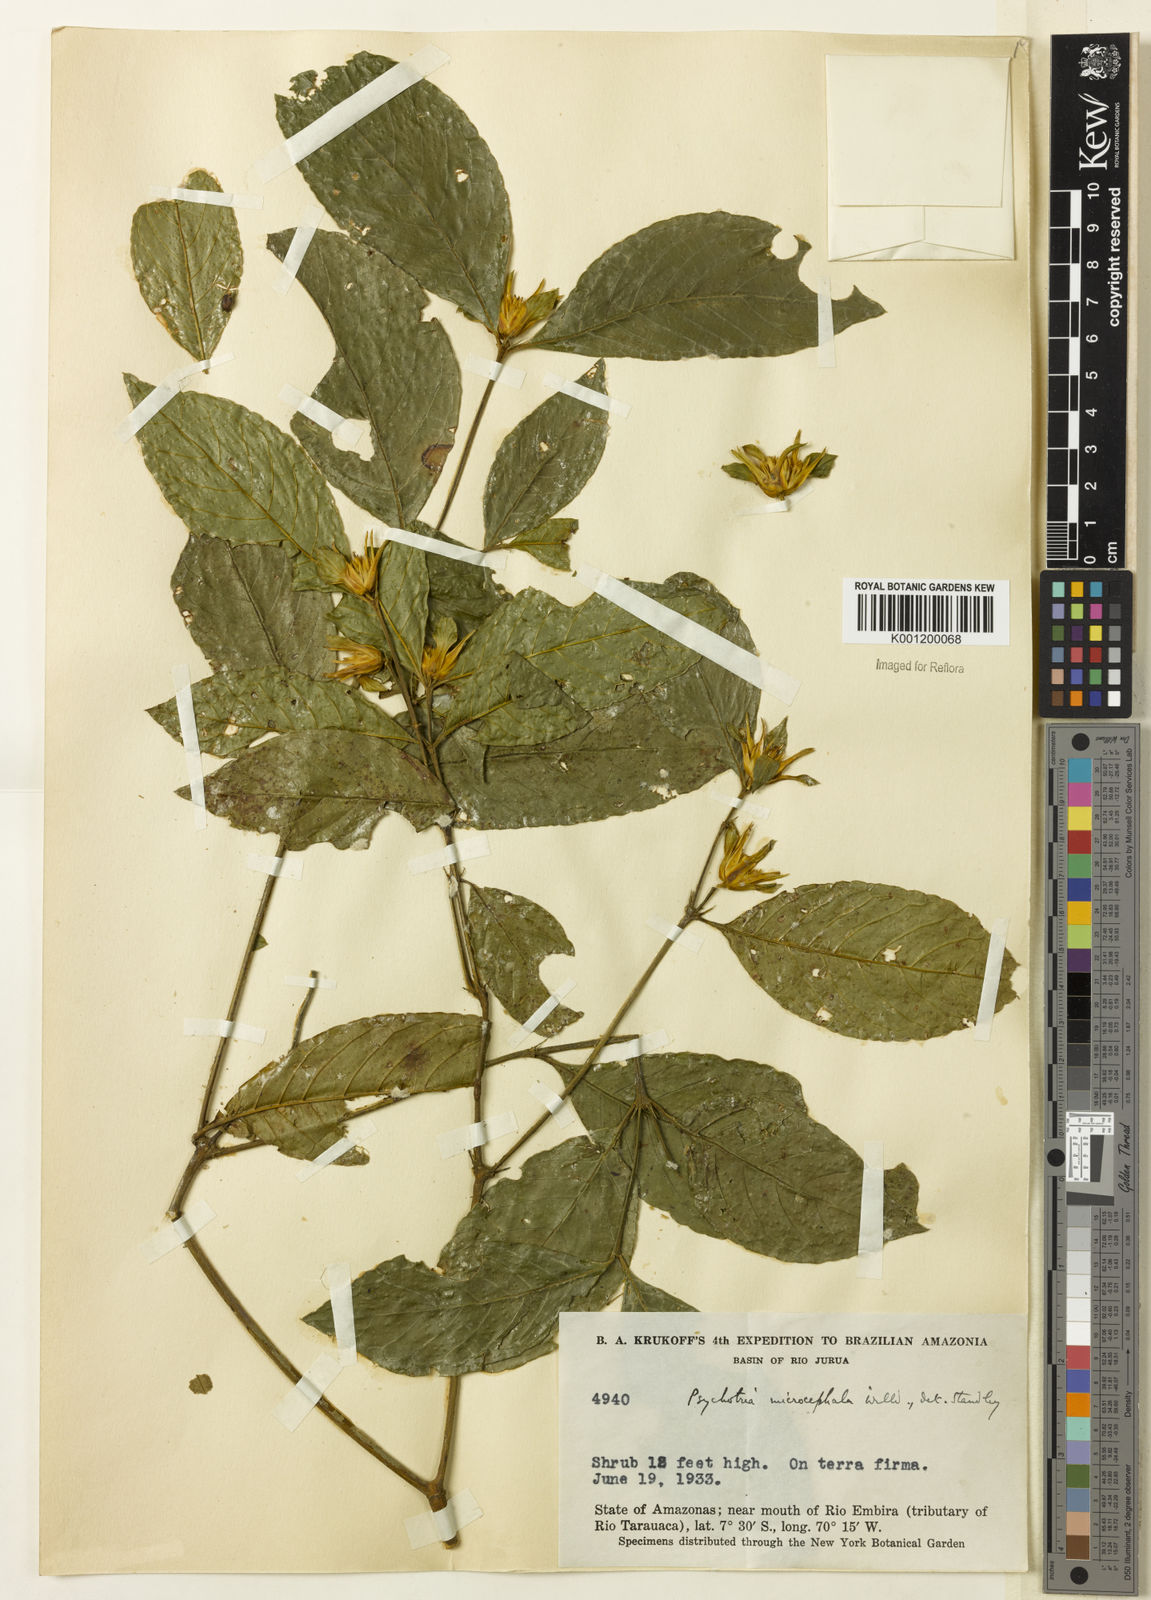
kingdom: Plantae
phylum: Tracheophyta
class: Magnoliopsida
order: Gentianales
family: Rubiaceae
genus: Palicourea
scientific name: Palicourea tenerior
